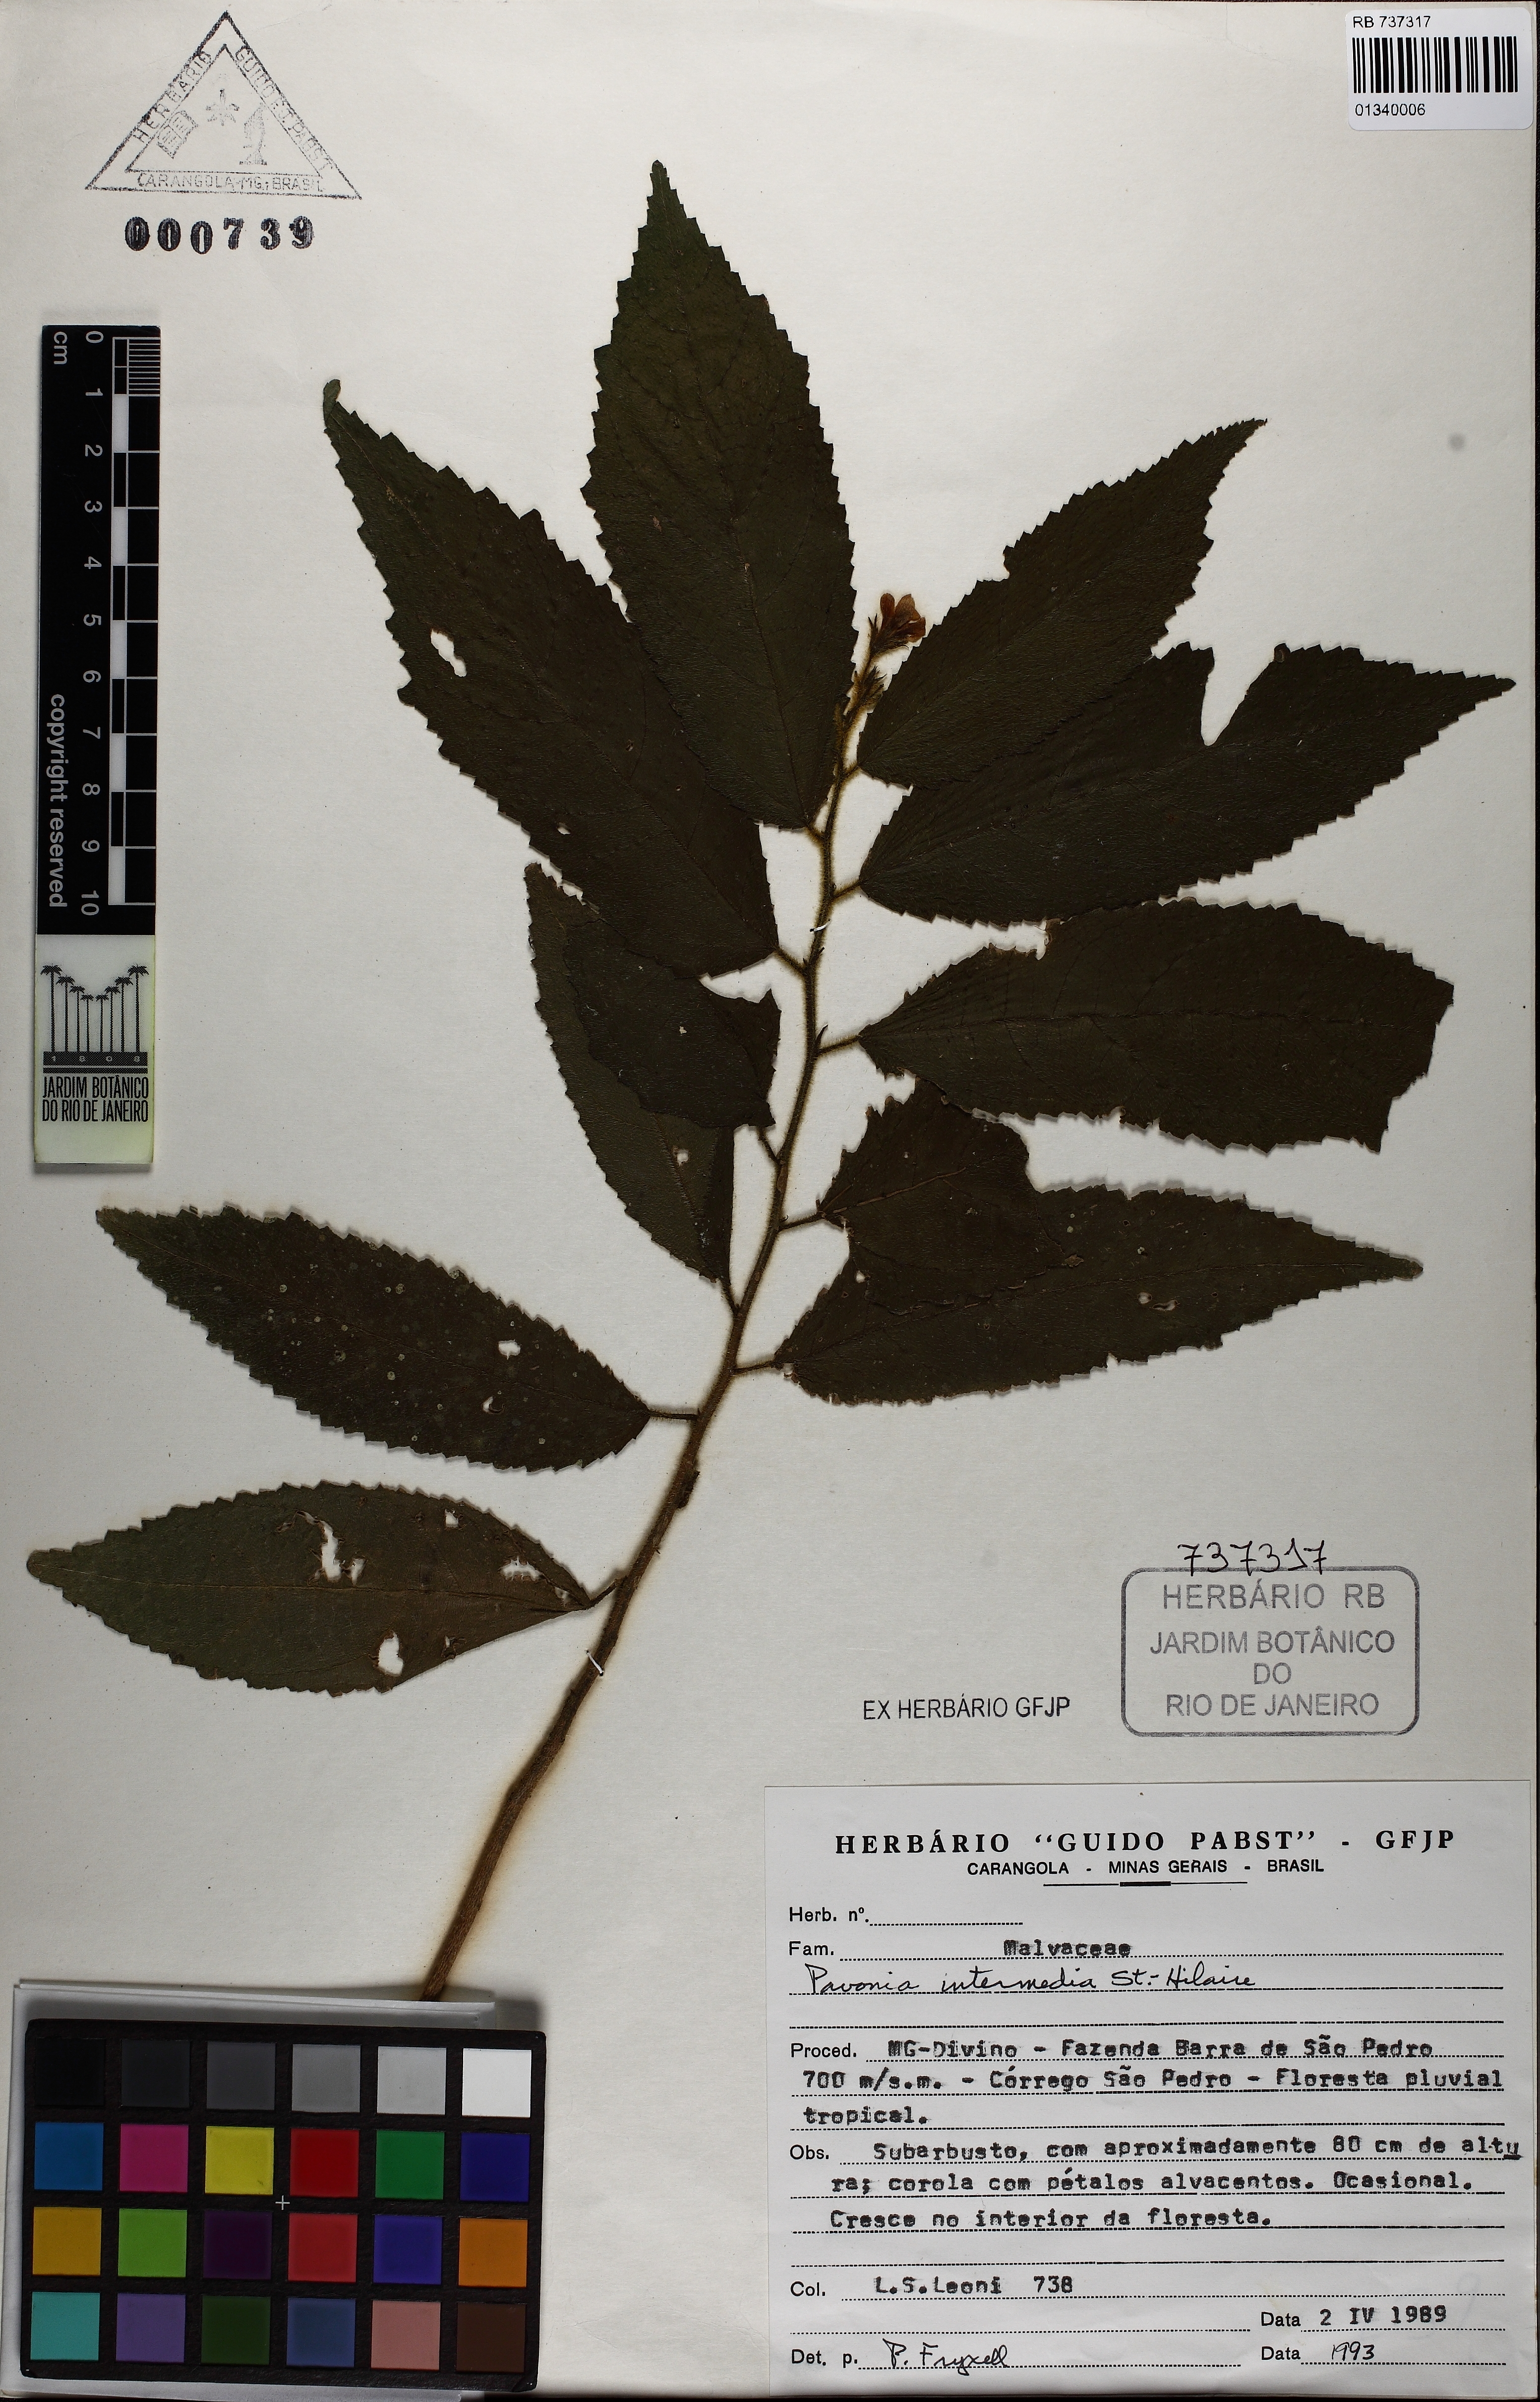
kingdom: Plantae
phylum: Tracheophyta
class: Magnoliopsida
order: Malvales
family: Malvaceae
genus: Pavonia
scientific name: Pavonia intermedia
